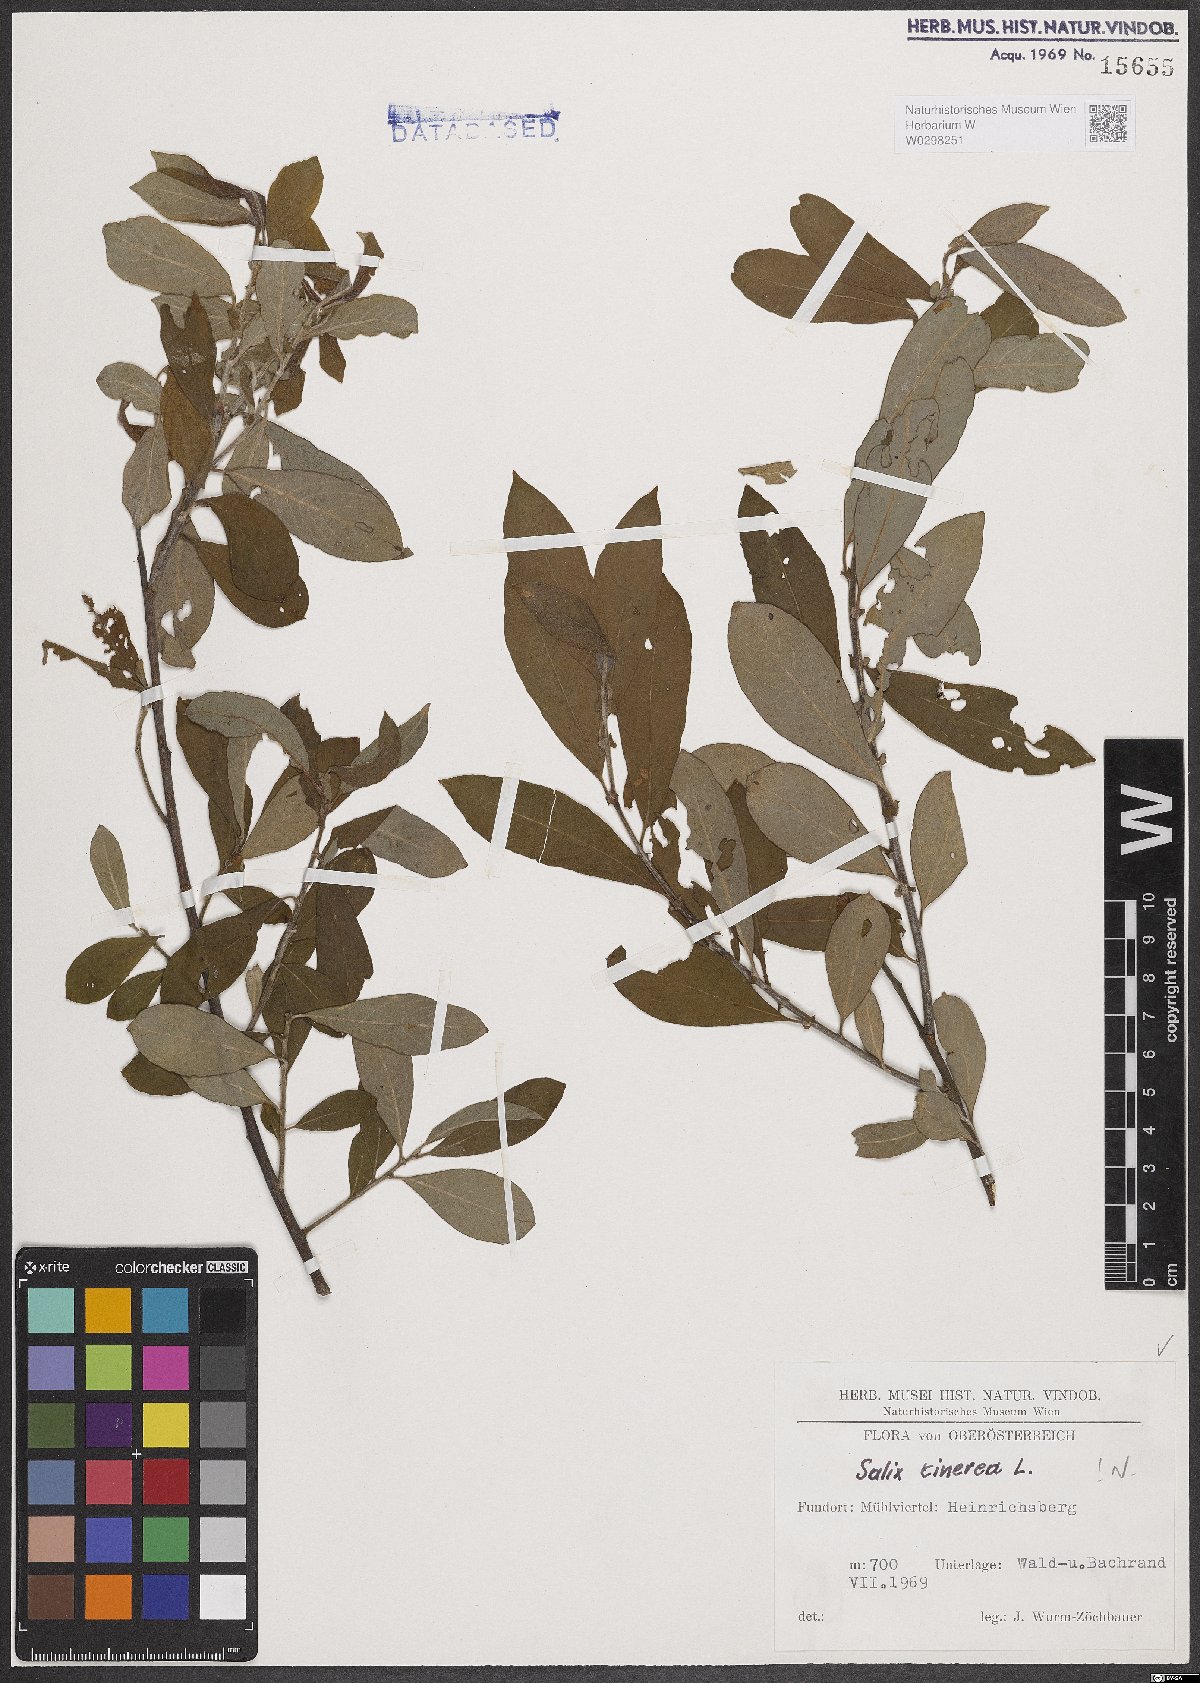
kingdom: Plantae
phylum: Tracheophyta
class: Magnoliopsida
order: Malpighiales
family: Salicaceae
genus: Salix
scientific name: Salix cinerea
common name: Common sallow
